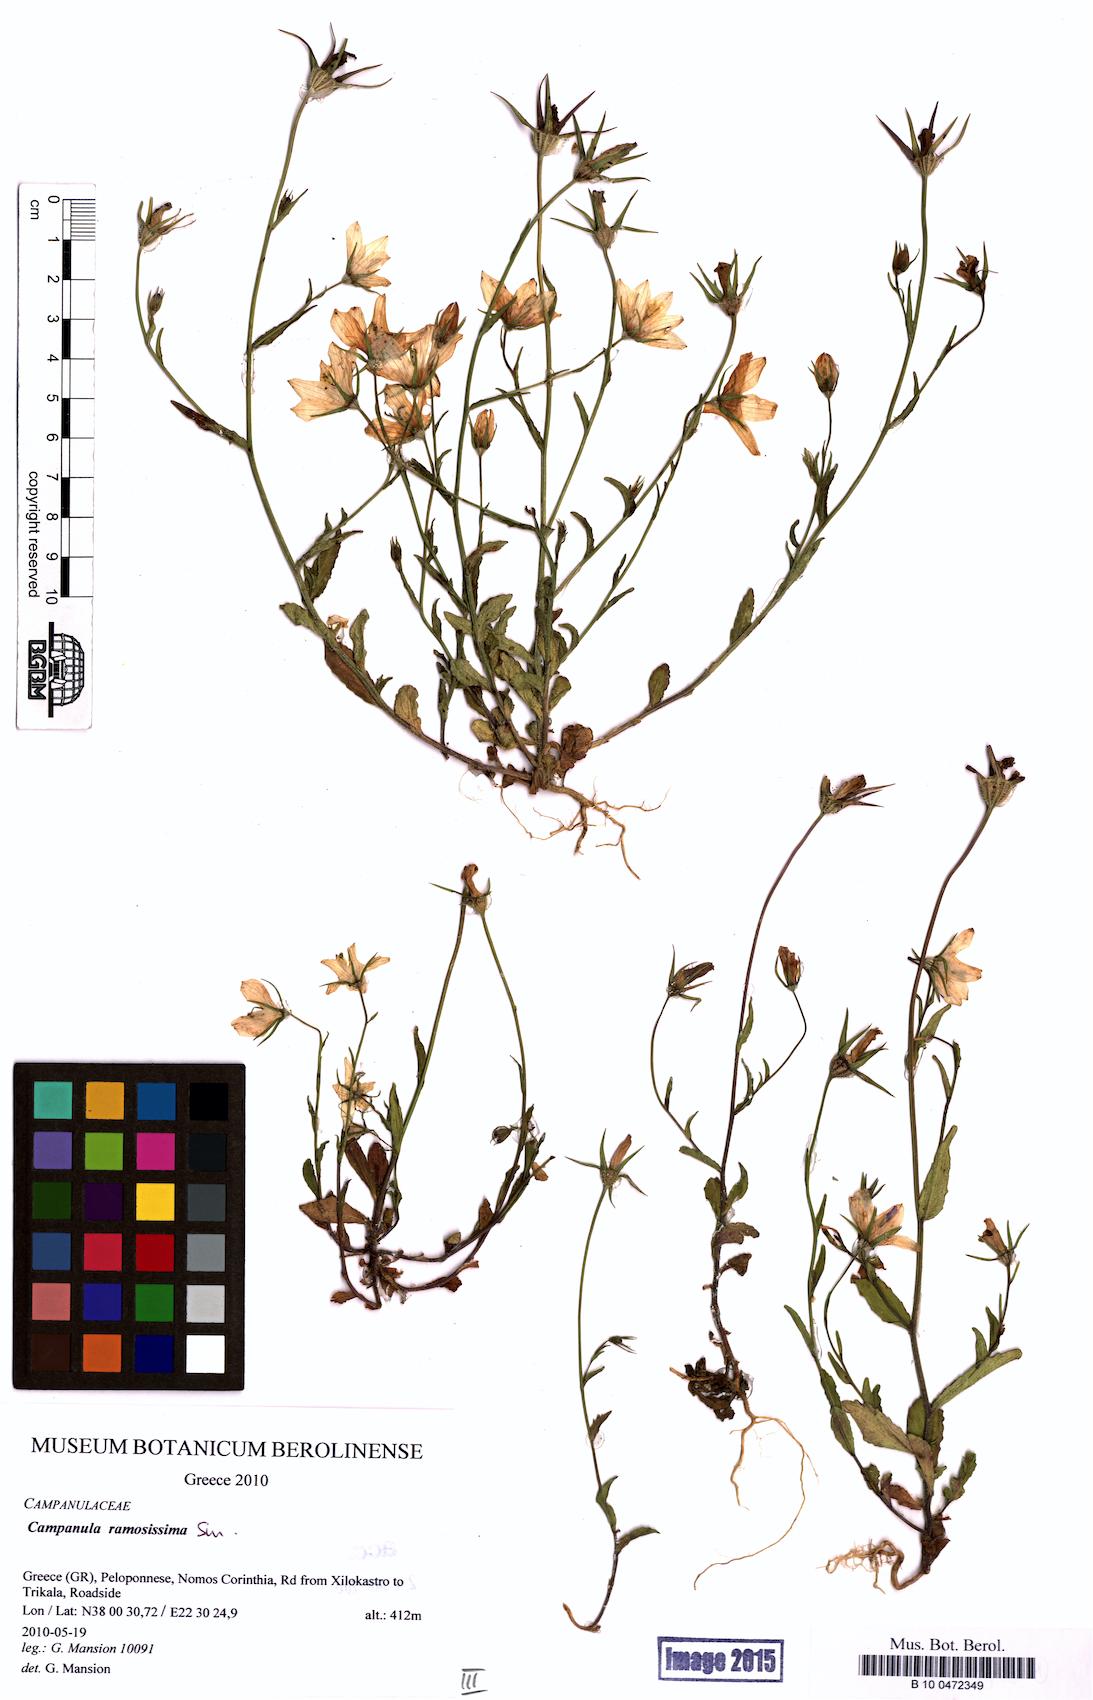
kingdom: Plantae
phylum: Tracheophyta
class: Magnoliopsida
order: Asterales
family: Campanulaceae
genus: Campanula
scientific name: Campanula ramosissima
